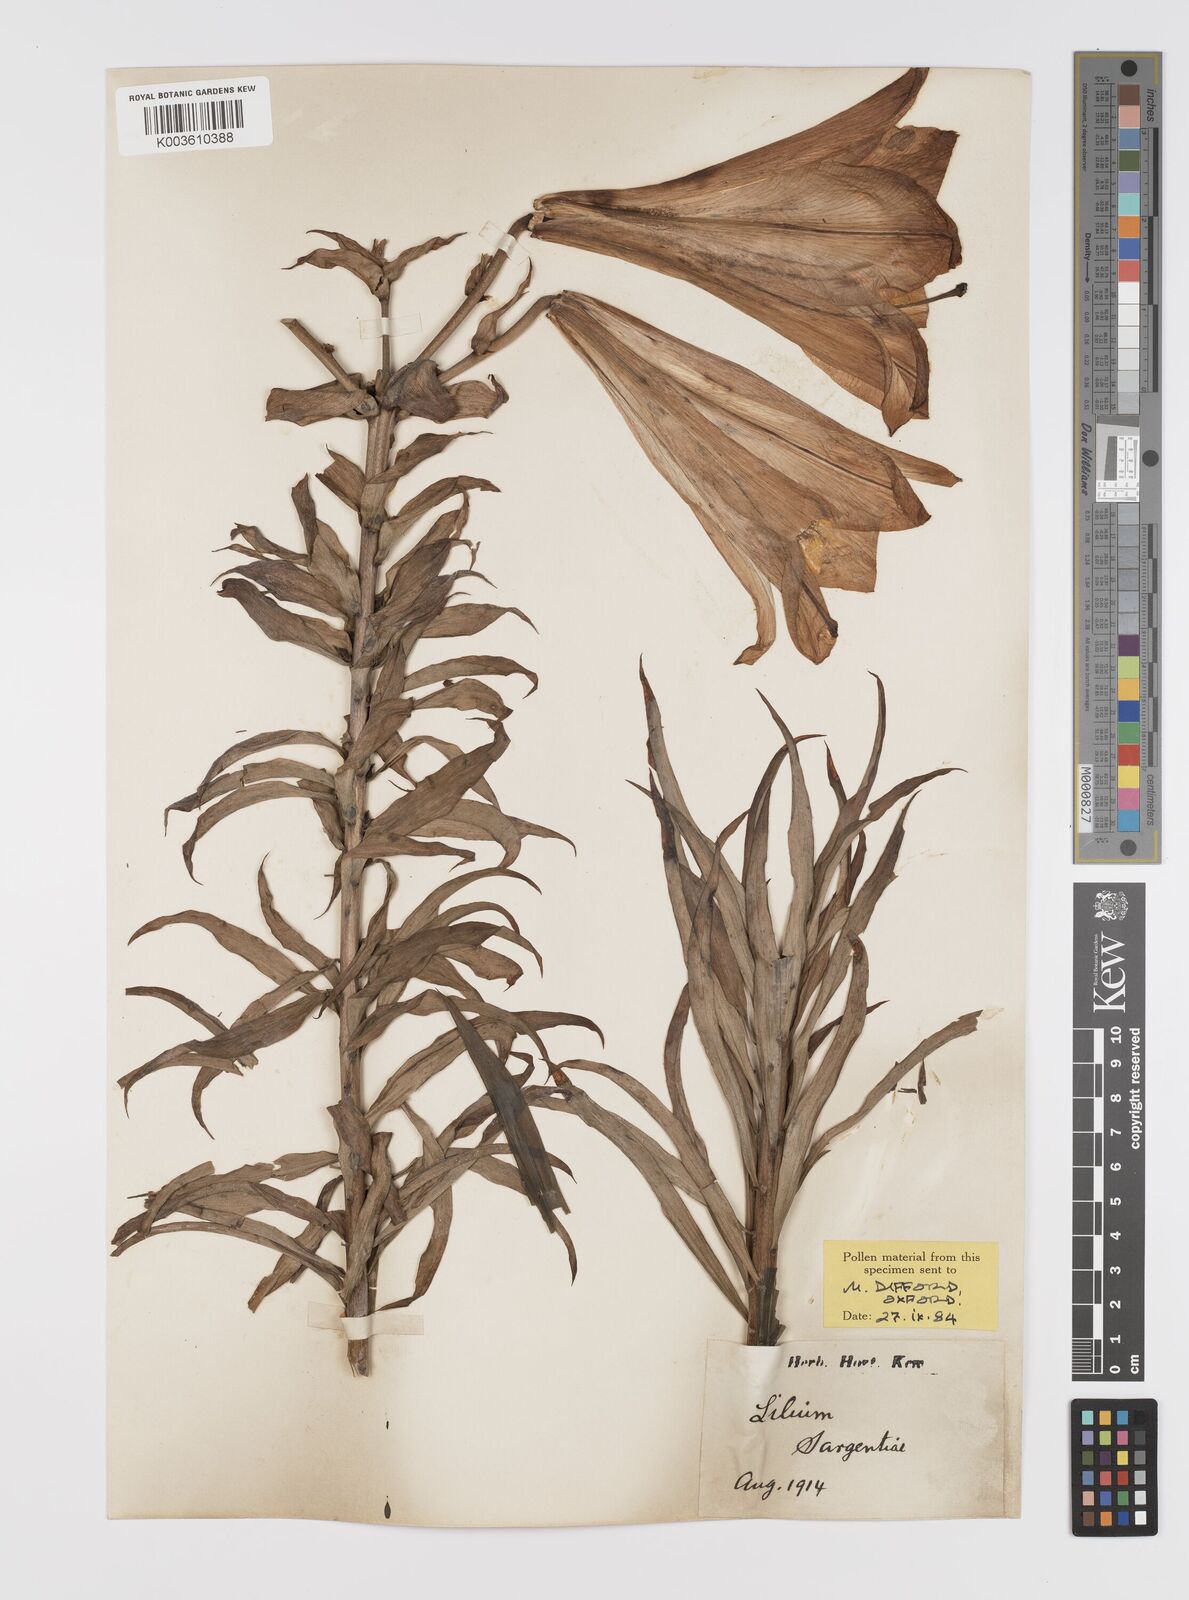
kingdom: Plantae
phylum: Tracheophyta
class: Liliopsida
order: Liliales
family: Liliaceae
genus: Lilium
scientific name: Lilium sargentiae
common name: Sargent lily
